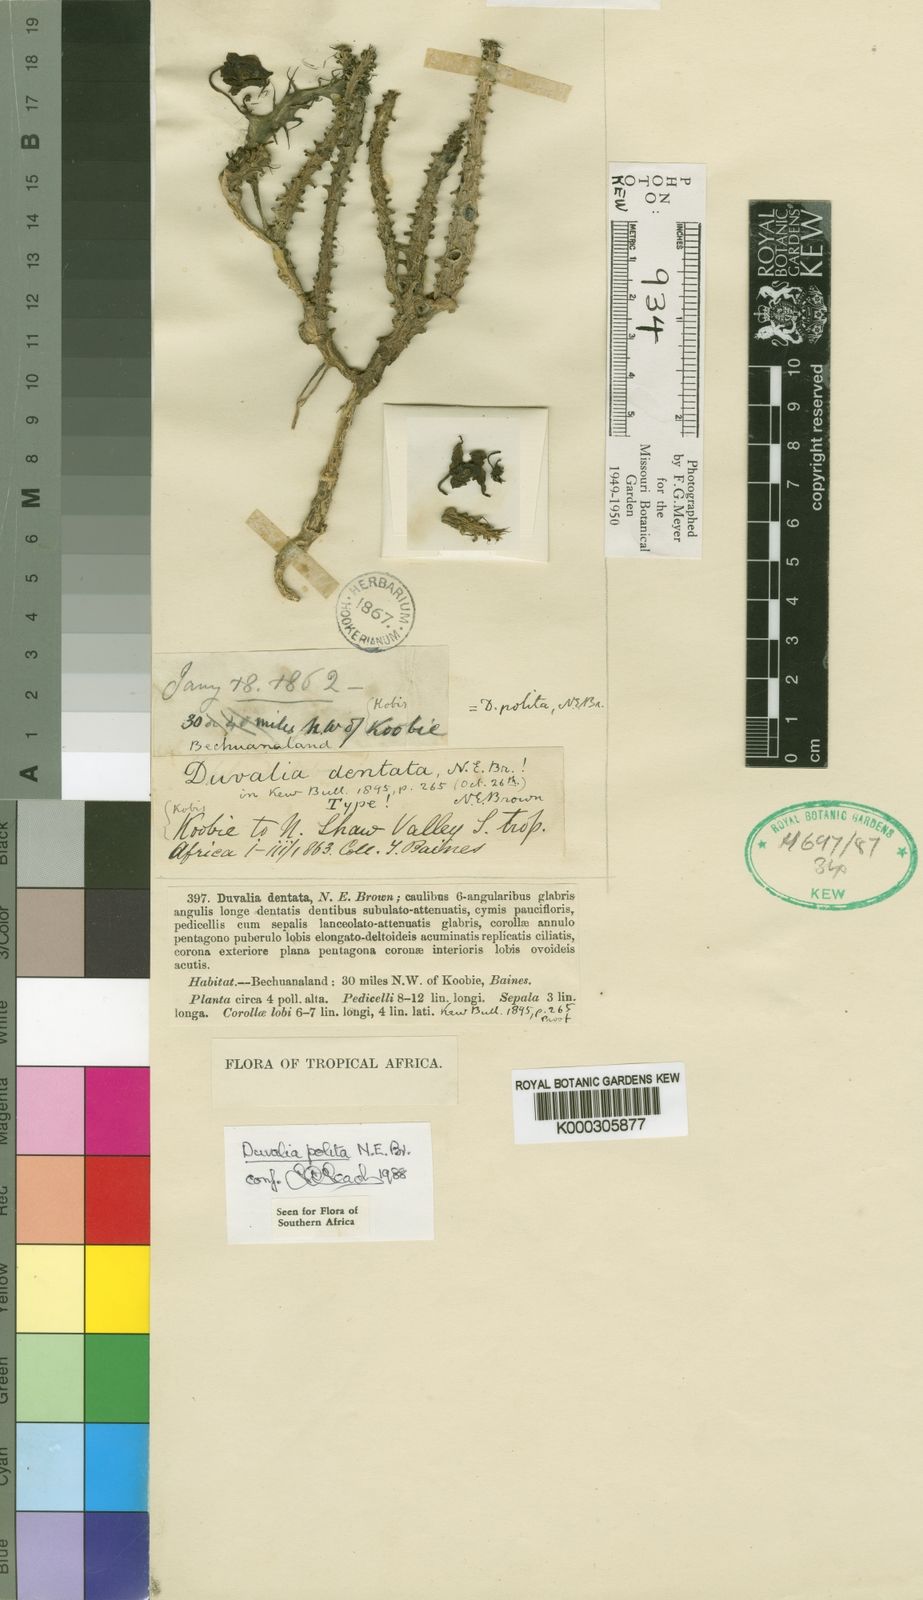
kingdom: Plantae
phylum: Tracheophyta
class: Magnoliopsida
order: Gentianales
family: Apocynaceae
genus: Ceropegia
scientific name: Ceropegia polita
